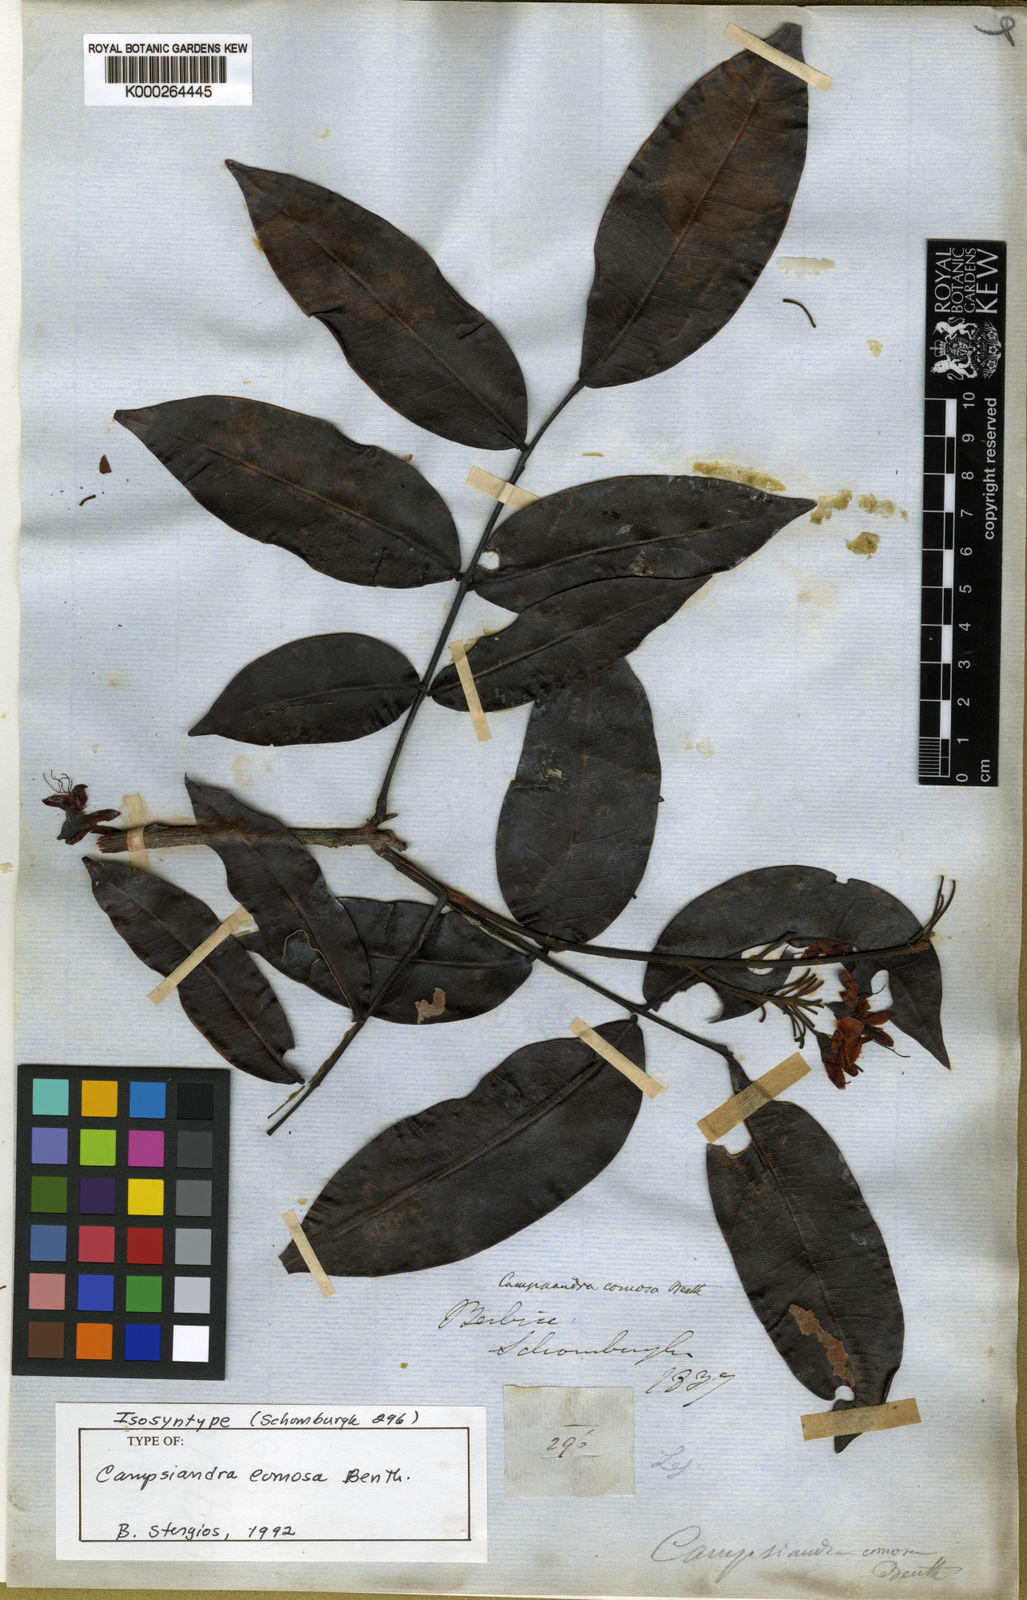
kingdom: Plantae
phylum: Tracheophyta
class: Magnoliopsida
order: Fabales
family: Fabaceae
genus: Campsiandra
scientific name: Campsiandra comosa
